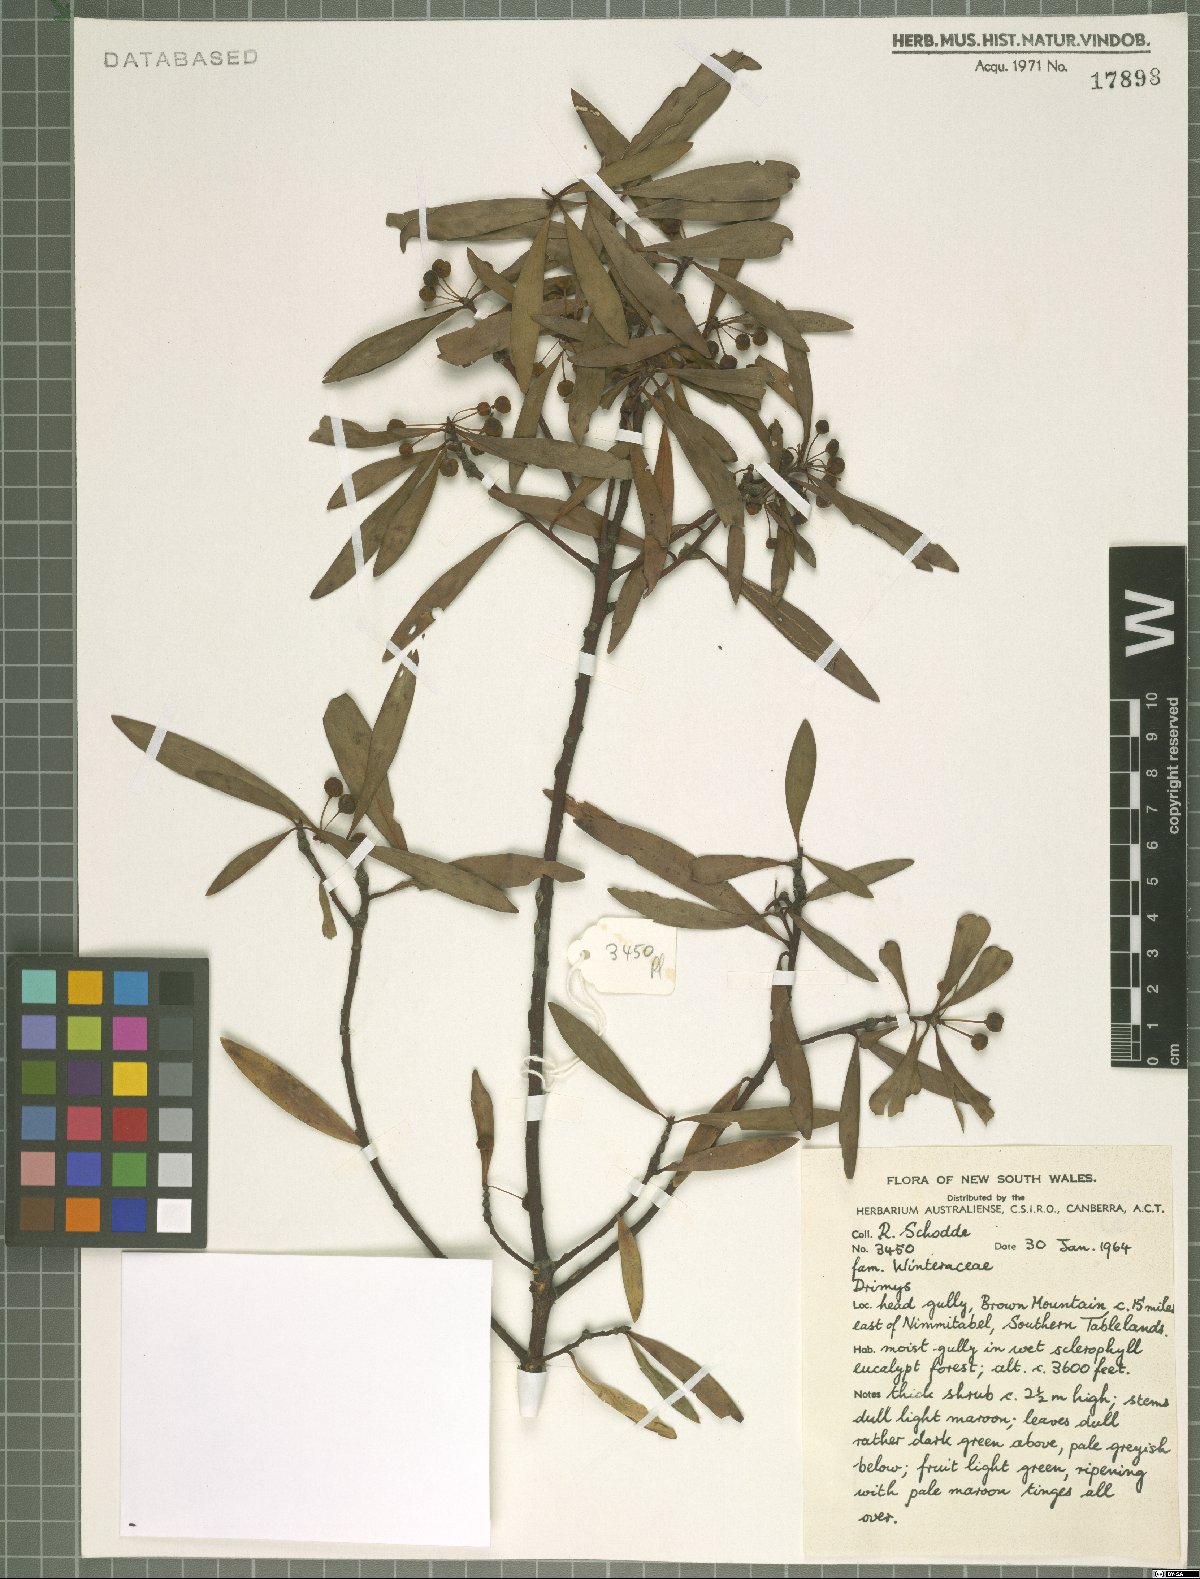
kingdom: Plantae
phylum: Tracheophyta
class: Magnoliopsida
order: Canellales
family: Winteraceae
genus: Drimys
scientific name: Drimys
